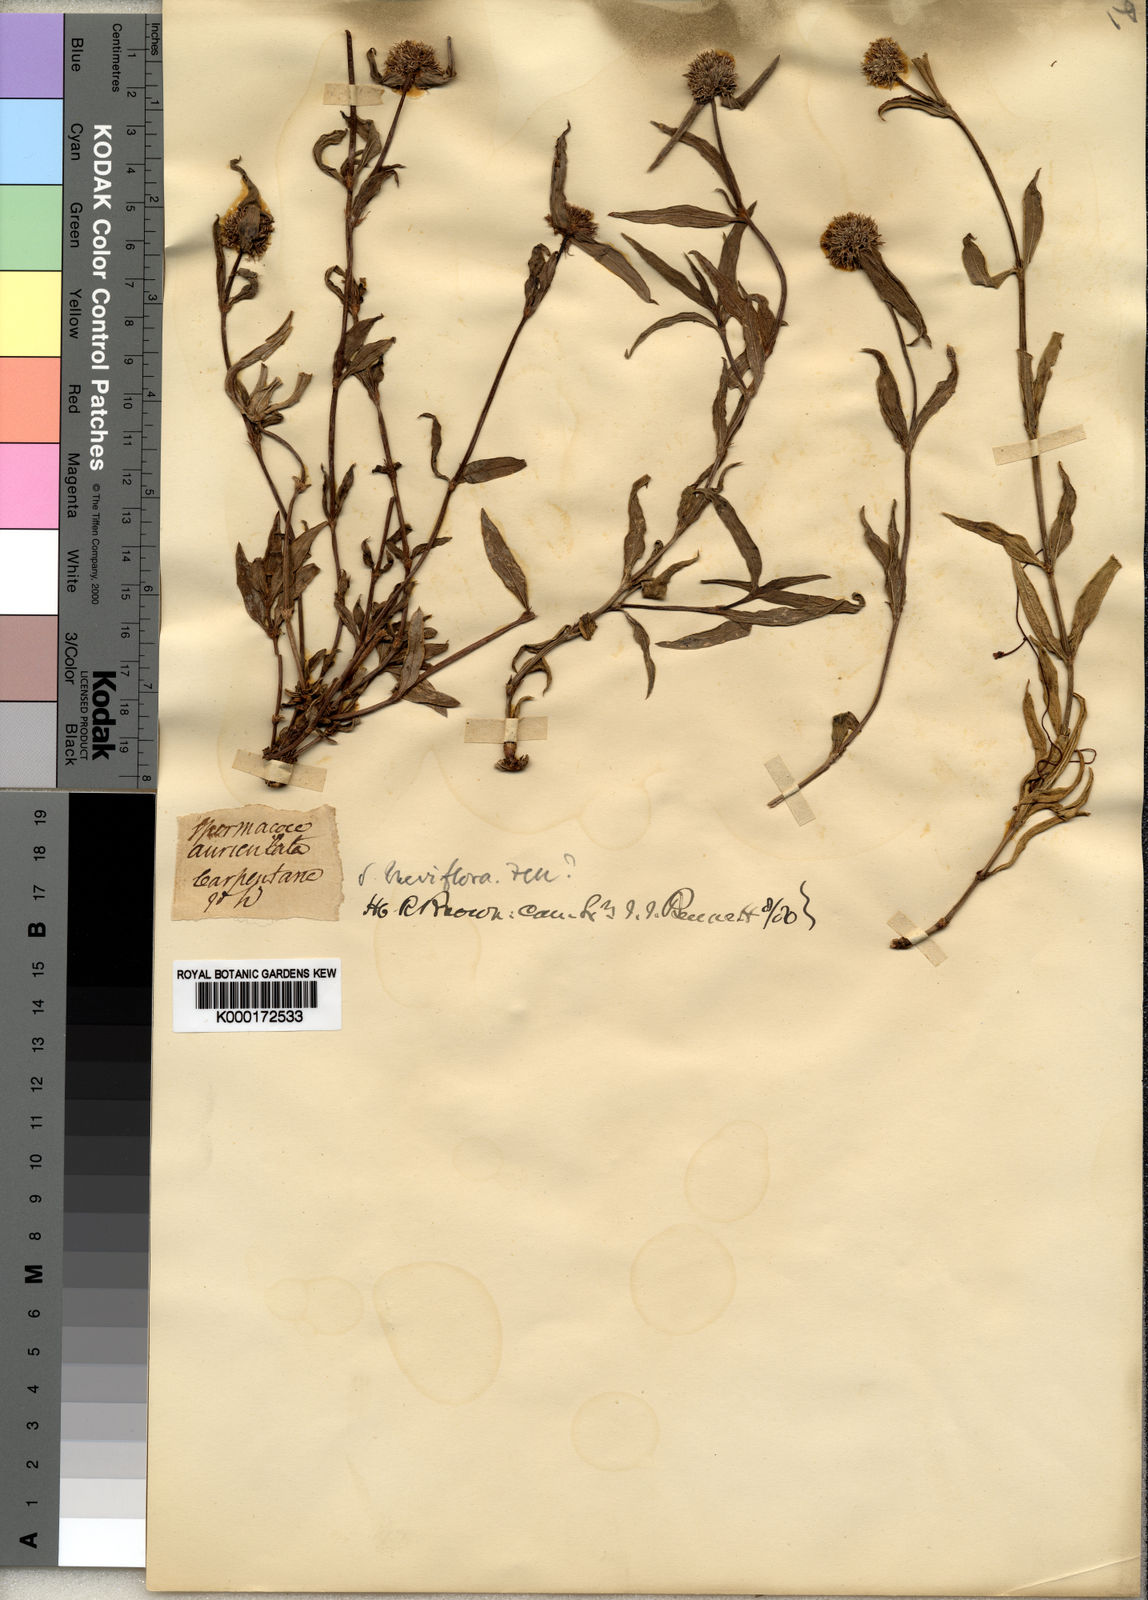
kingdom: Plantae
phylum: Tracheophyta
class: Magnoliopsida
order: Gentianales
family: Rubiaceae
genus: Spermacoce
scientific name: Spermacoce breviflora
